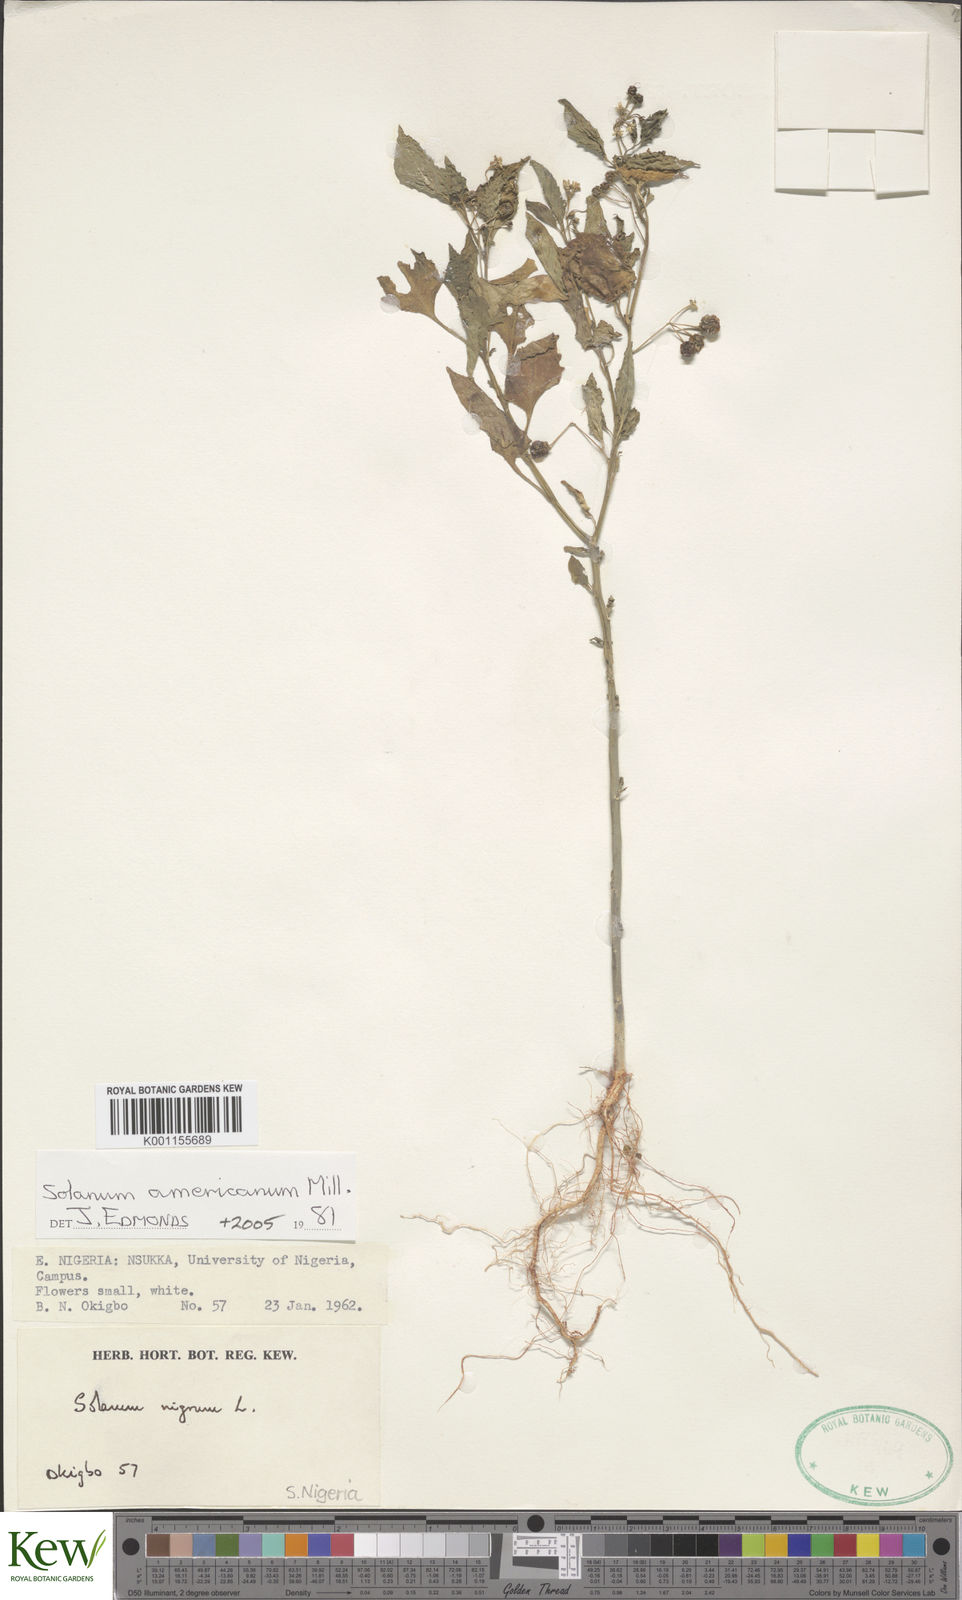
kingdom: Plantae
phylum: Tracheophyta
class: Magnoliopsida
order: Solanales
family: Solanaceae
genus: Solanum
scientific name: Solanum tarderemotum
